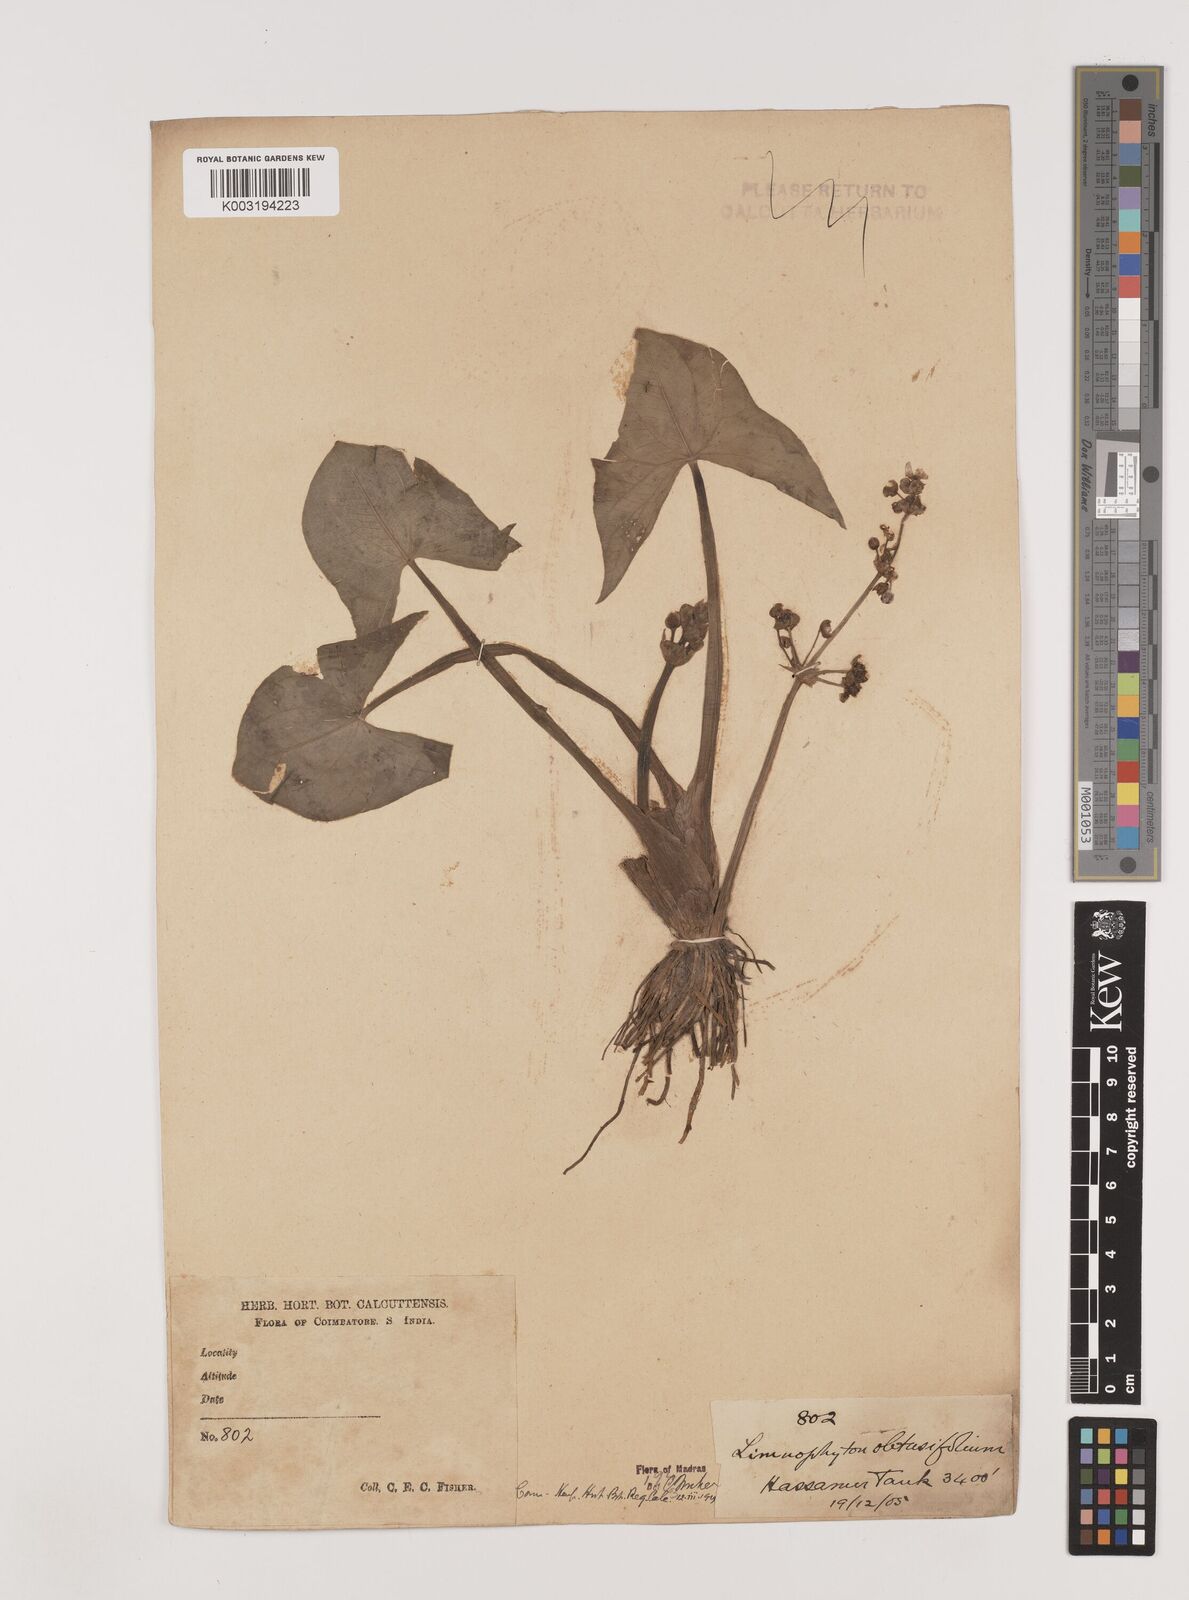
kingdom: Plantae
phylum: Tracheophyta
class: Liliopsida
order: Alismatales
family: Alismataceae
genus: Limnophyton
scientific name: Limnophyton obtusifolium
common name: Arrow head
